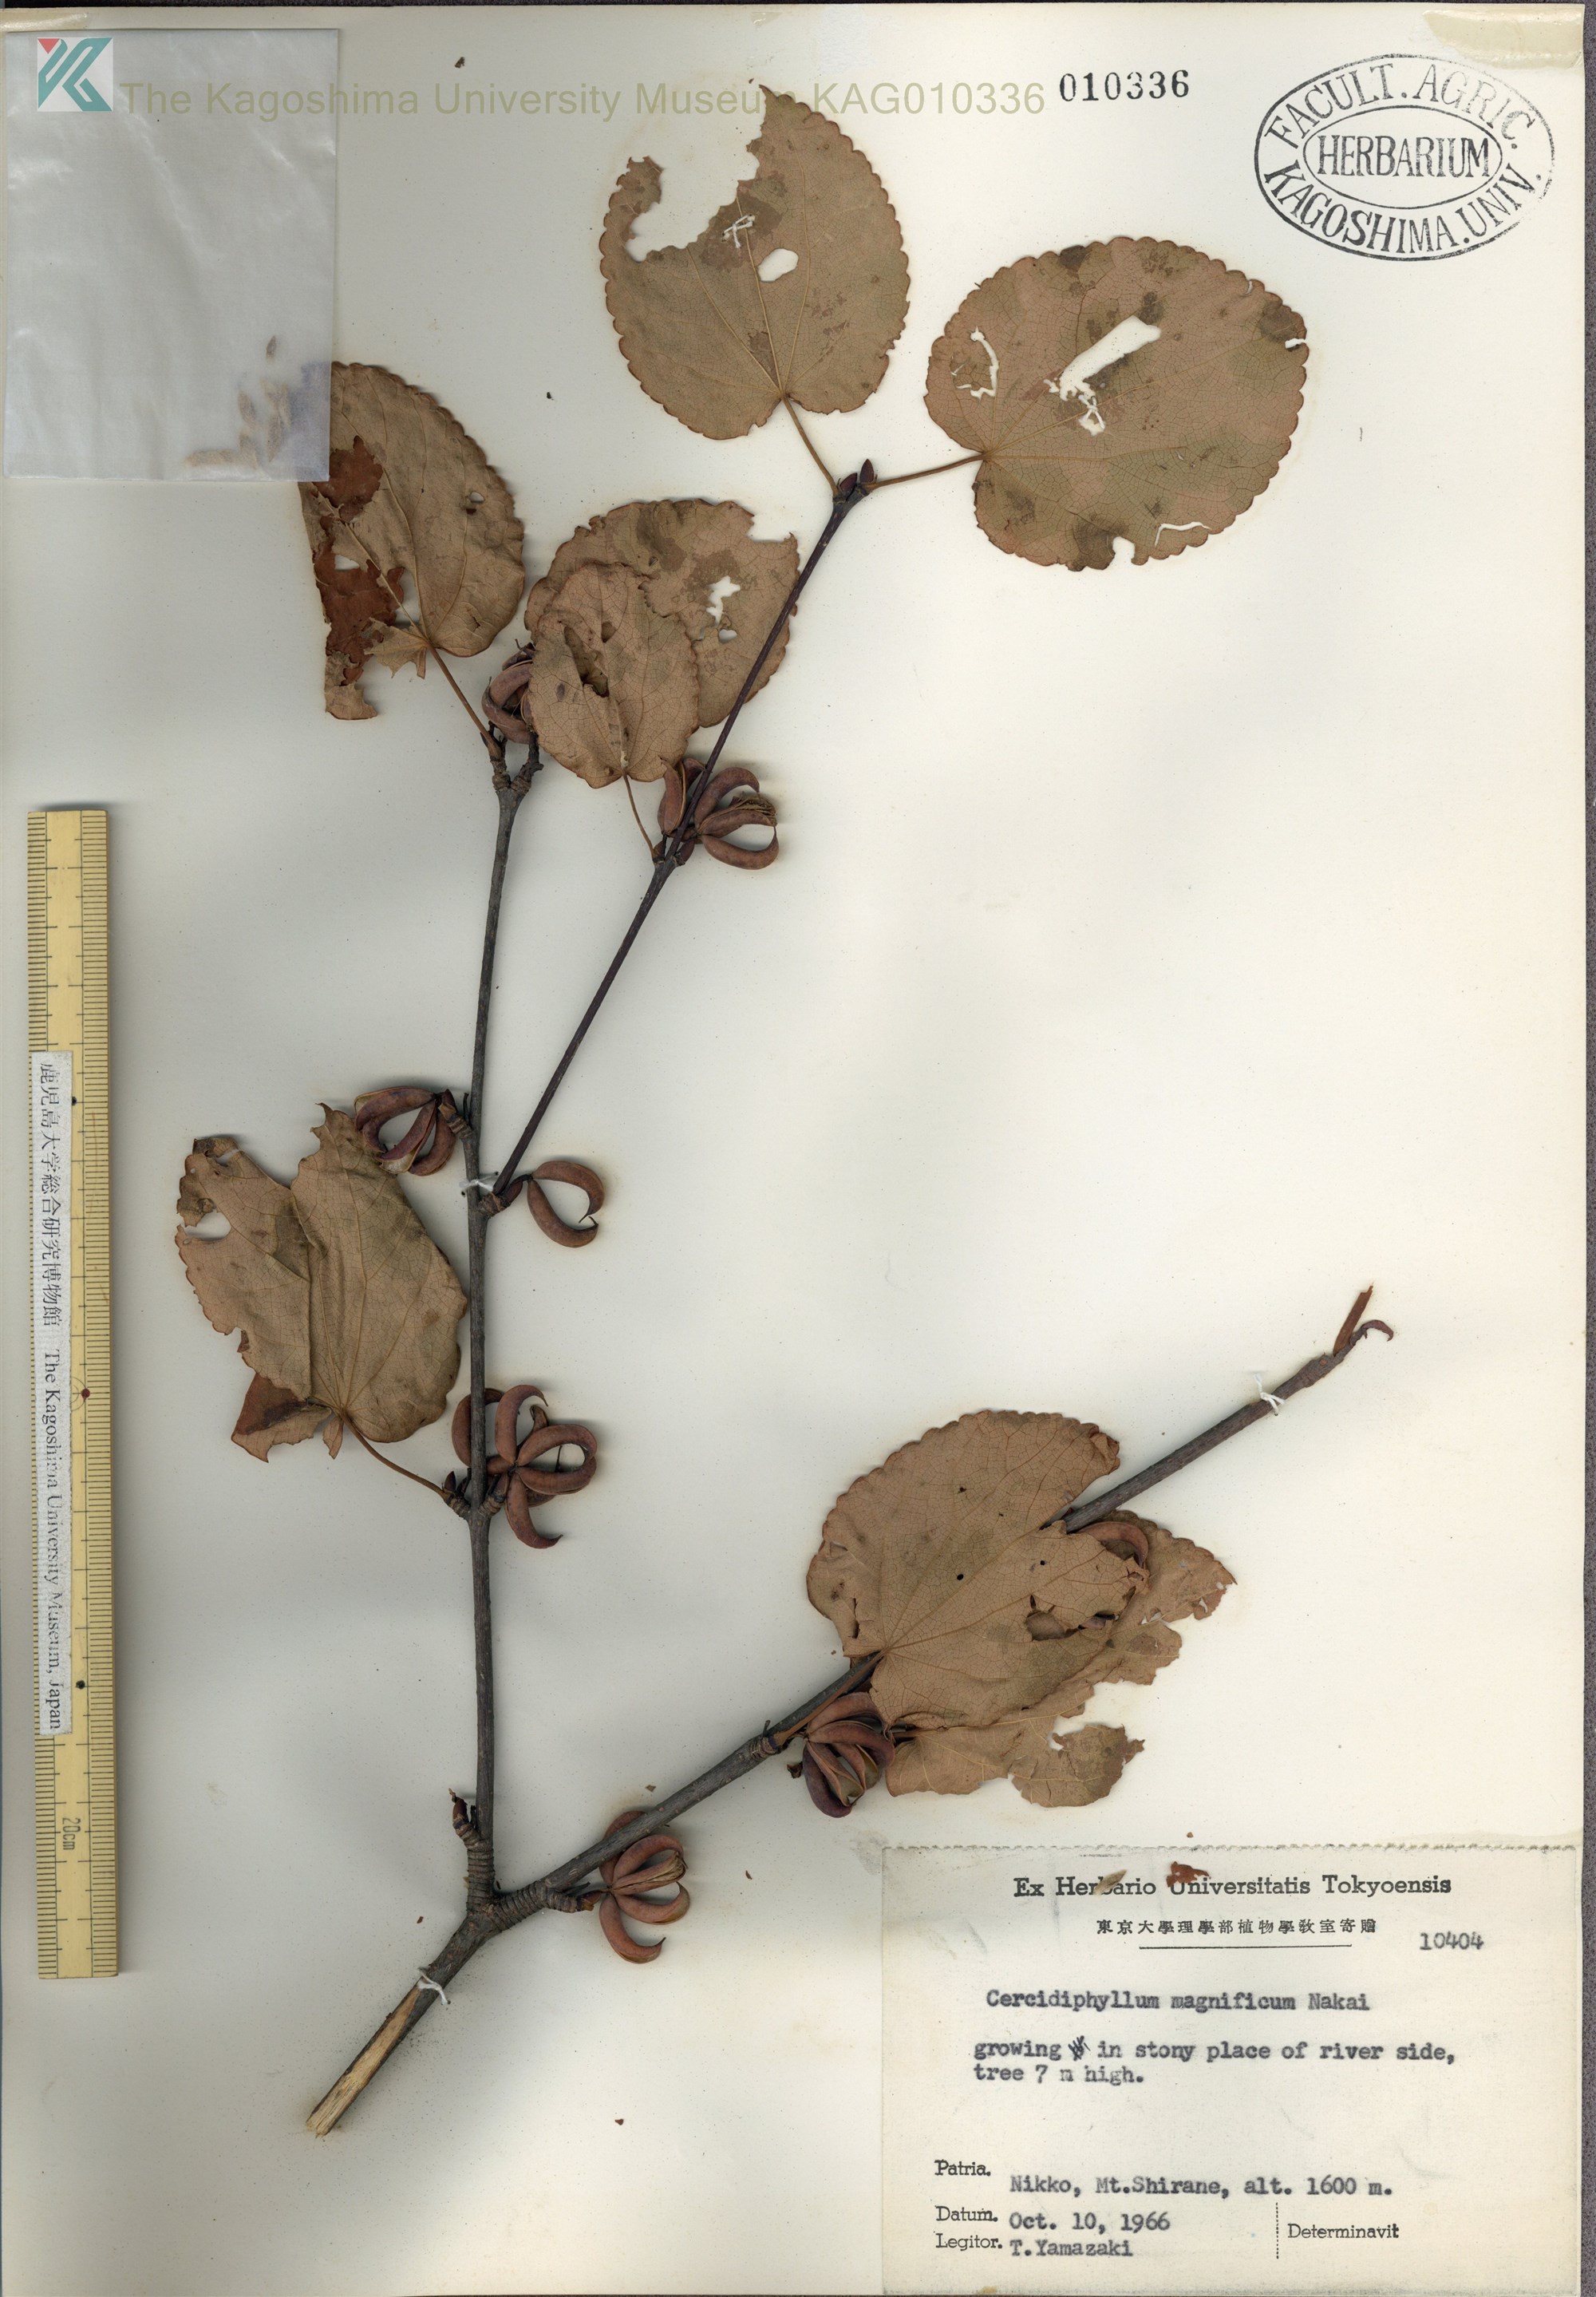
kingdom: Plantae
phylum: Tracheophyta
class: Magnoliopsida
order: Saxifragales
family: Cercidiphyllaceae
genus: Cercidiphyllum
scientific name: Cercidiphyllum magnificum
